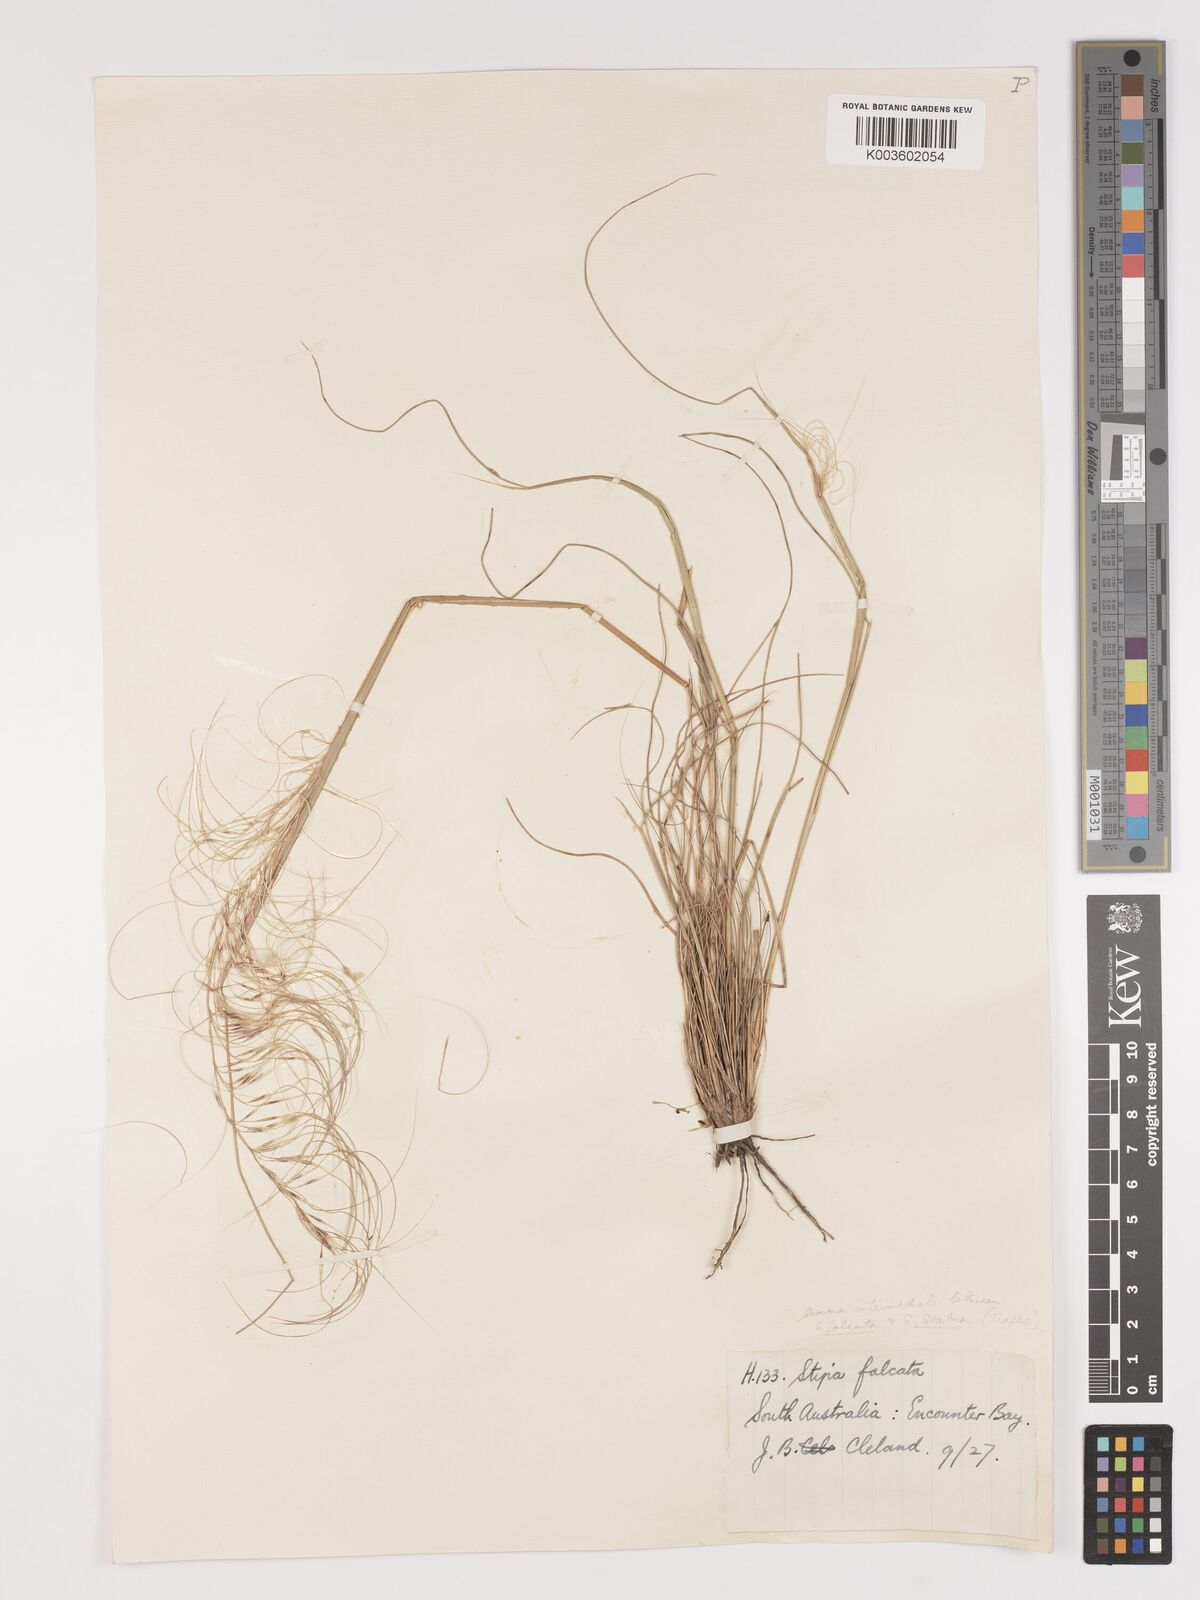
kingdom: Plantae
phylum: Tracheophyta
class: Liliopsida
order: Poales
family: Poaceae
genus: Austrostipa
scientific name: Austrostipa scabra
